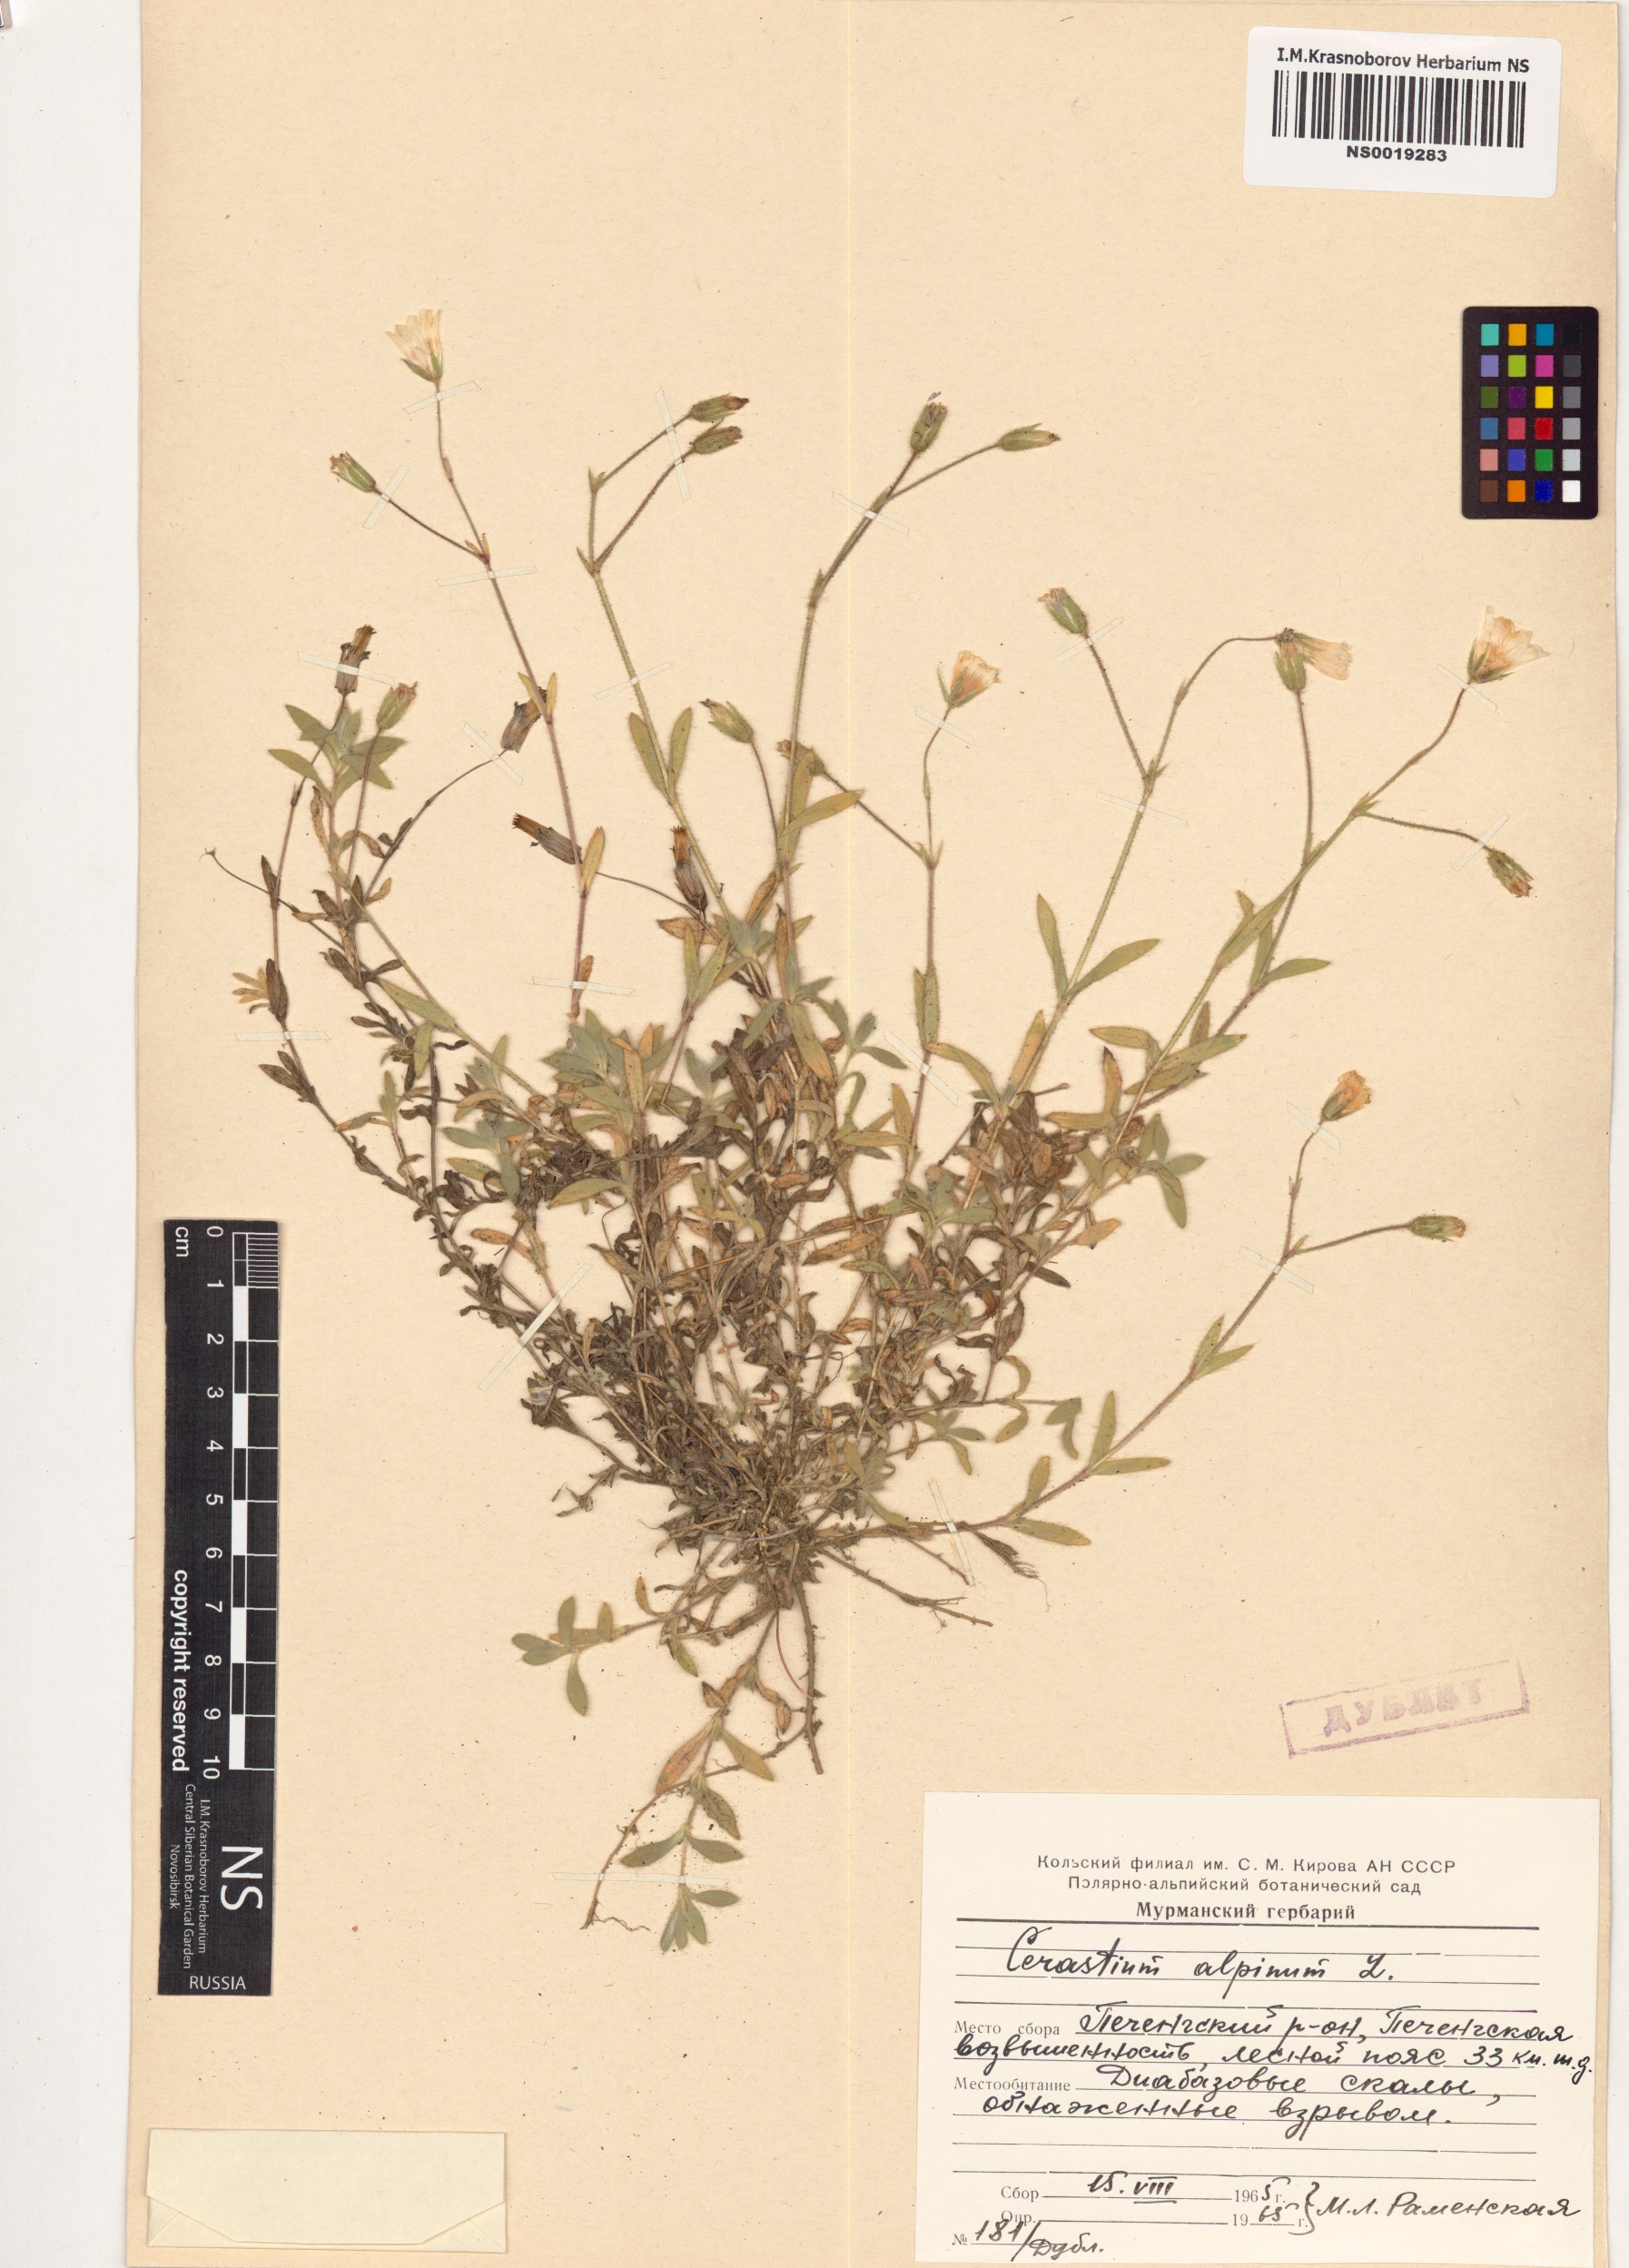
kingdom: Plantae
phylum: Tracheophyta
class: Magnoliopsida
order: Caryophyllales
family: Caryophyllaceae
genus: Cerastium
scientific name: Cerastium alpinum
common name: Alpine mouse-ear
